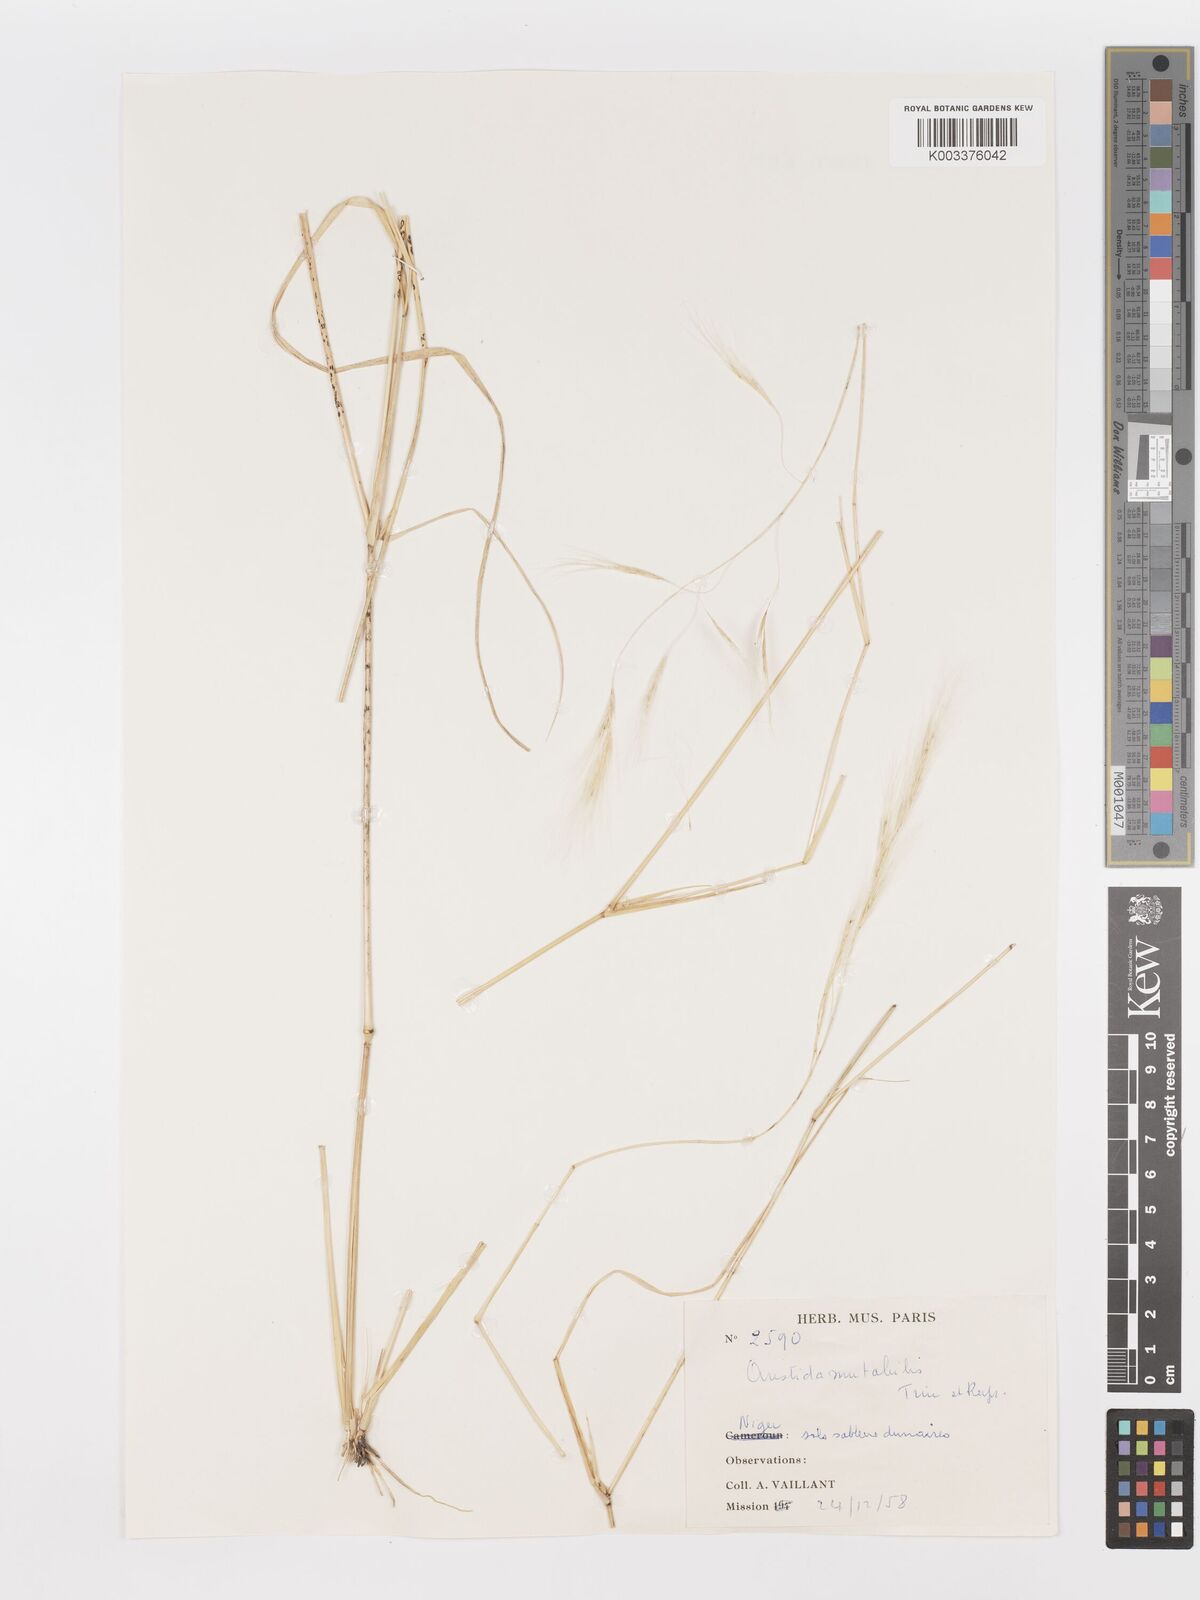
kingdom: Plantae
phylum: Tracheophyta
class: Liliopsida
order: Poales
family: Poaceae
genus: Aristida
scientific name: Aristida mutabilis
